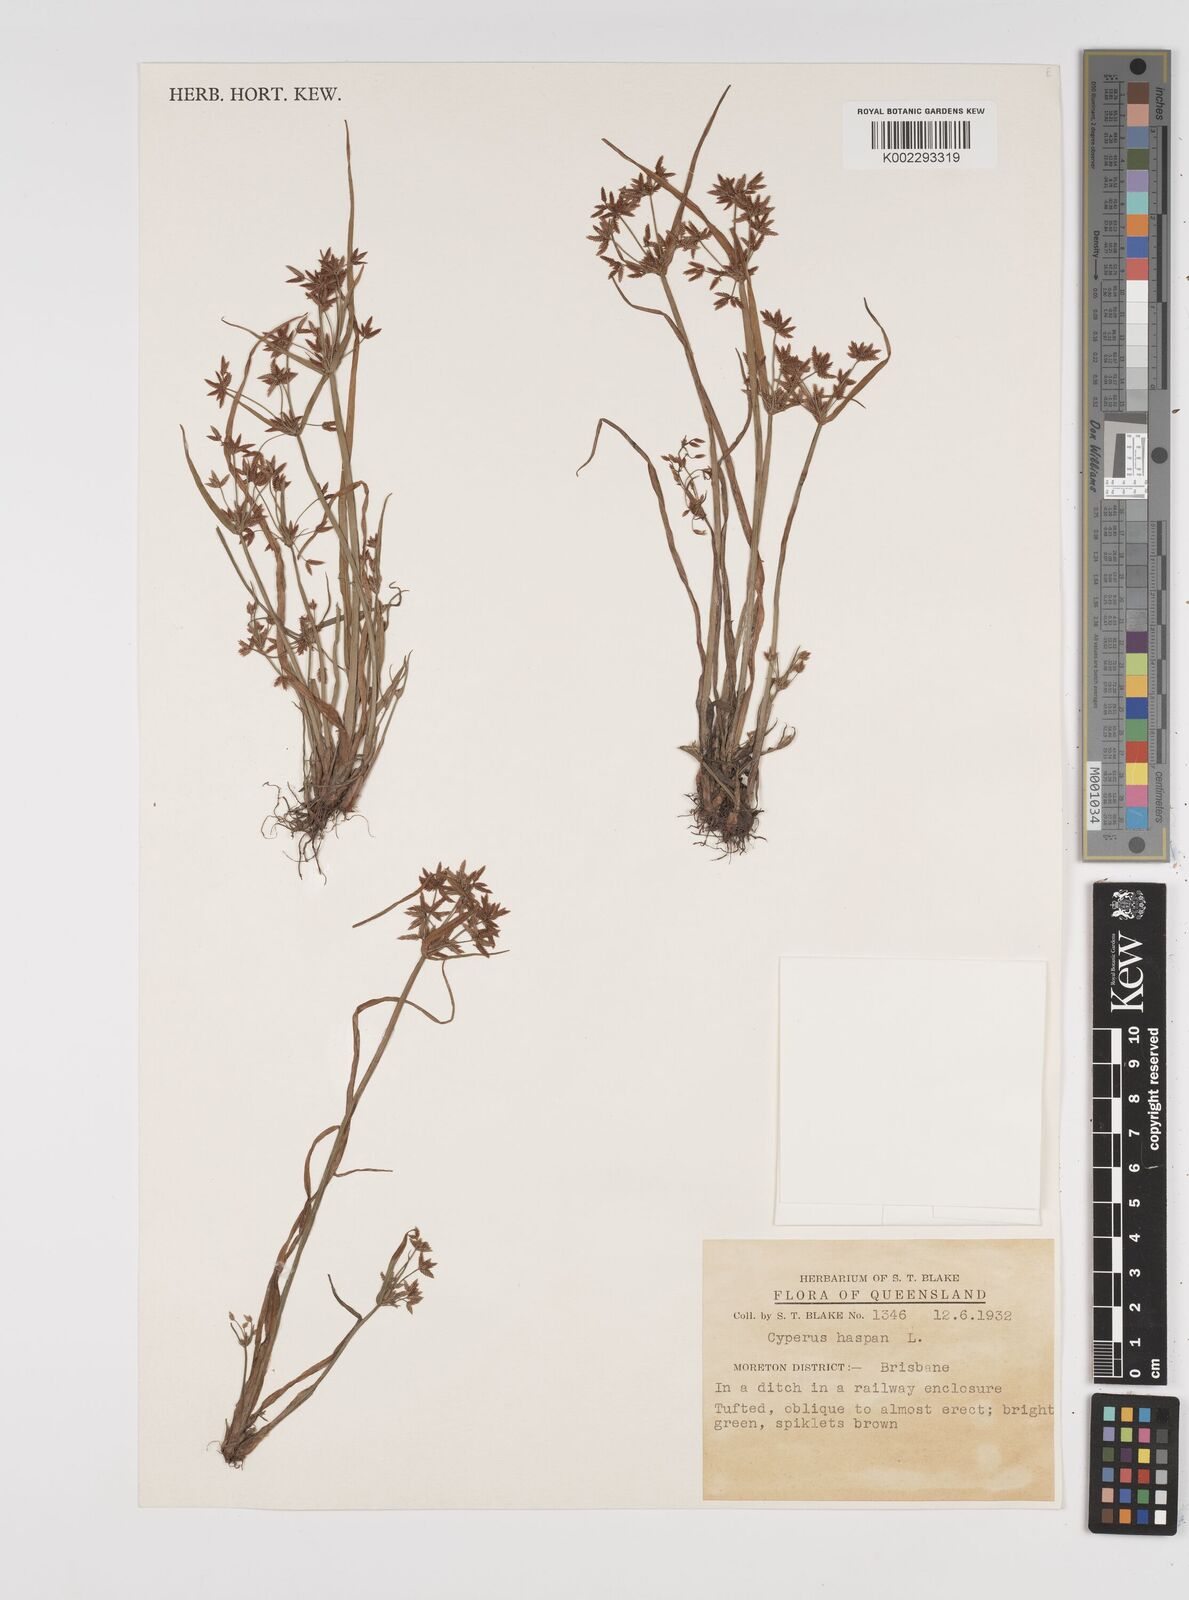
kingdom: Plantae
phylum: Tracheophyta
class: Liliopsida
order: Poales
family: Cyperaceae
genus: Cyperus
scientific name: Cyperus haspan
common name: Haspan flatsedge
